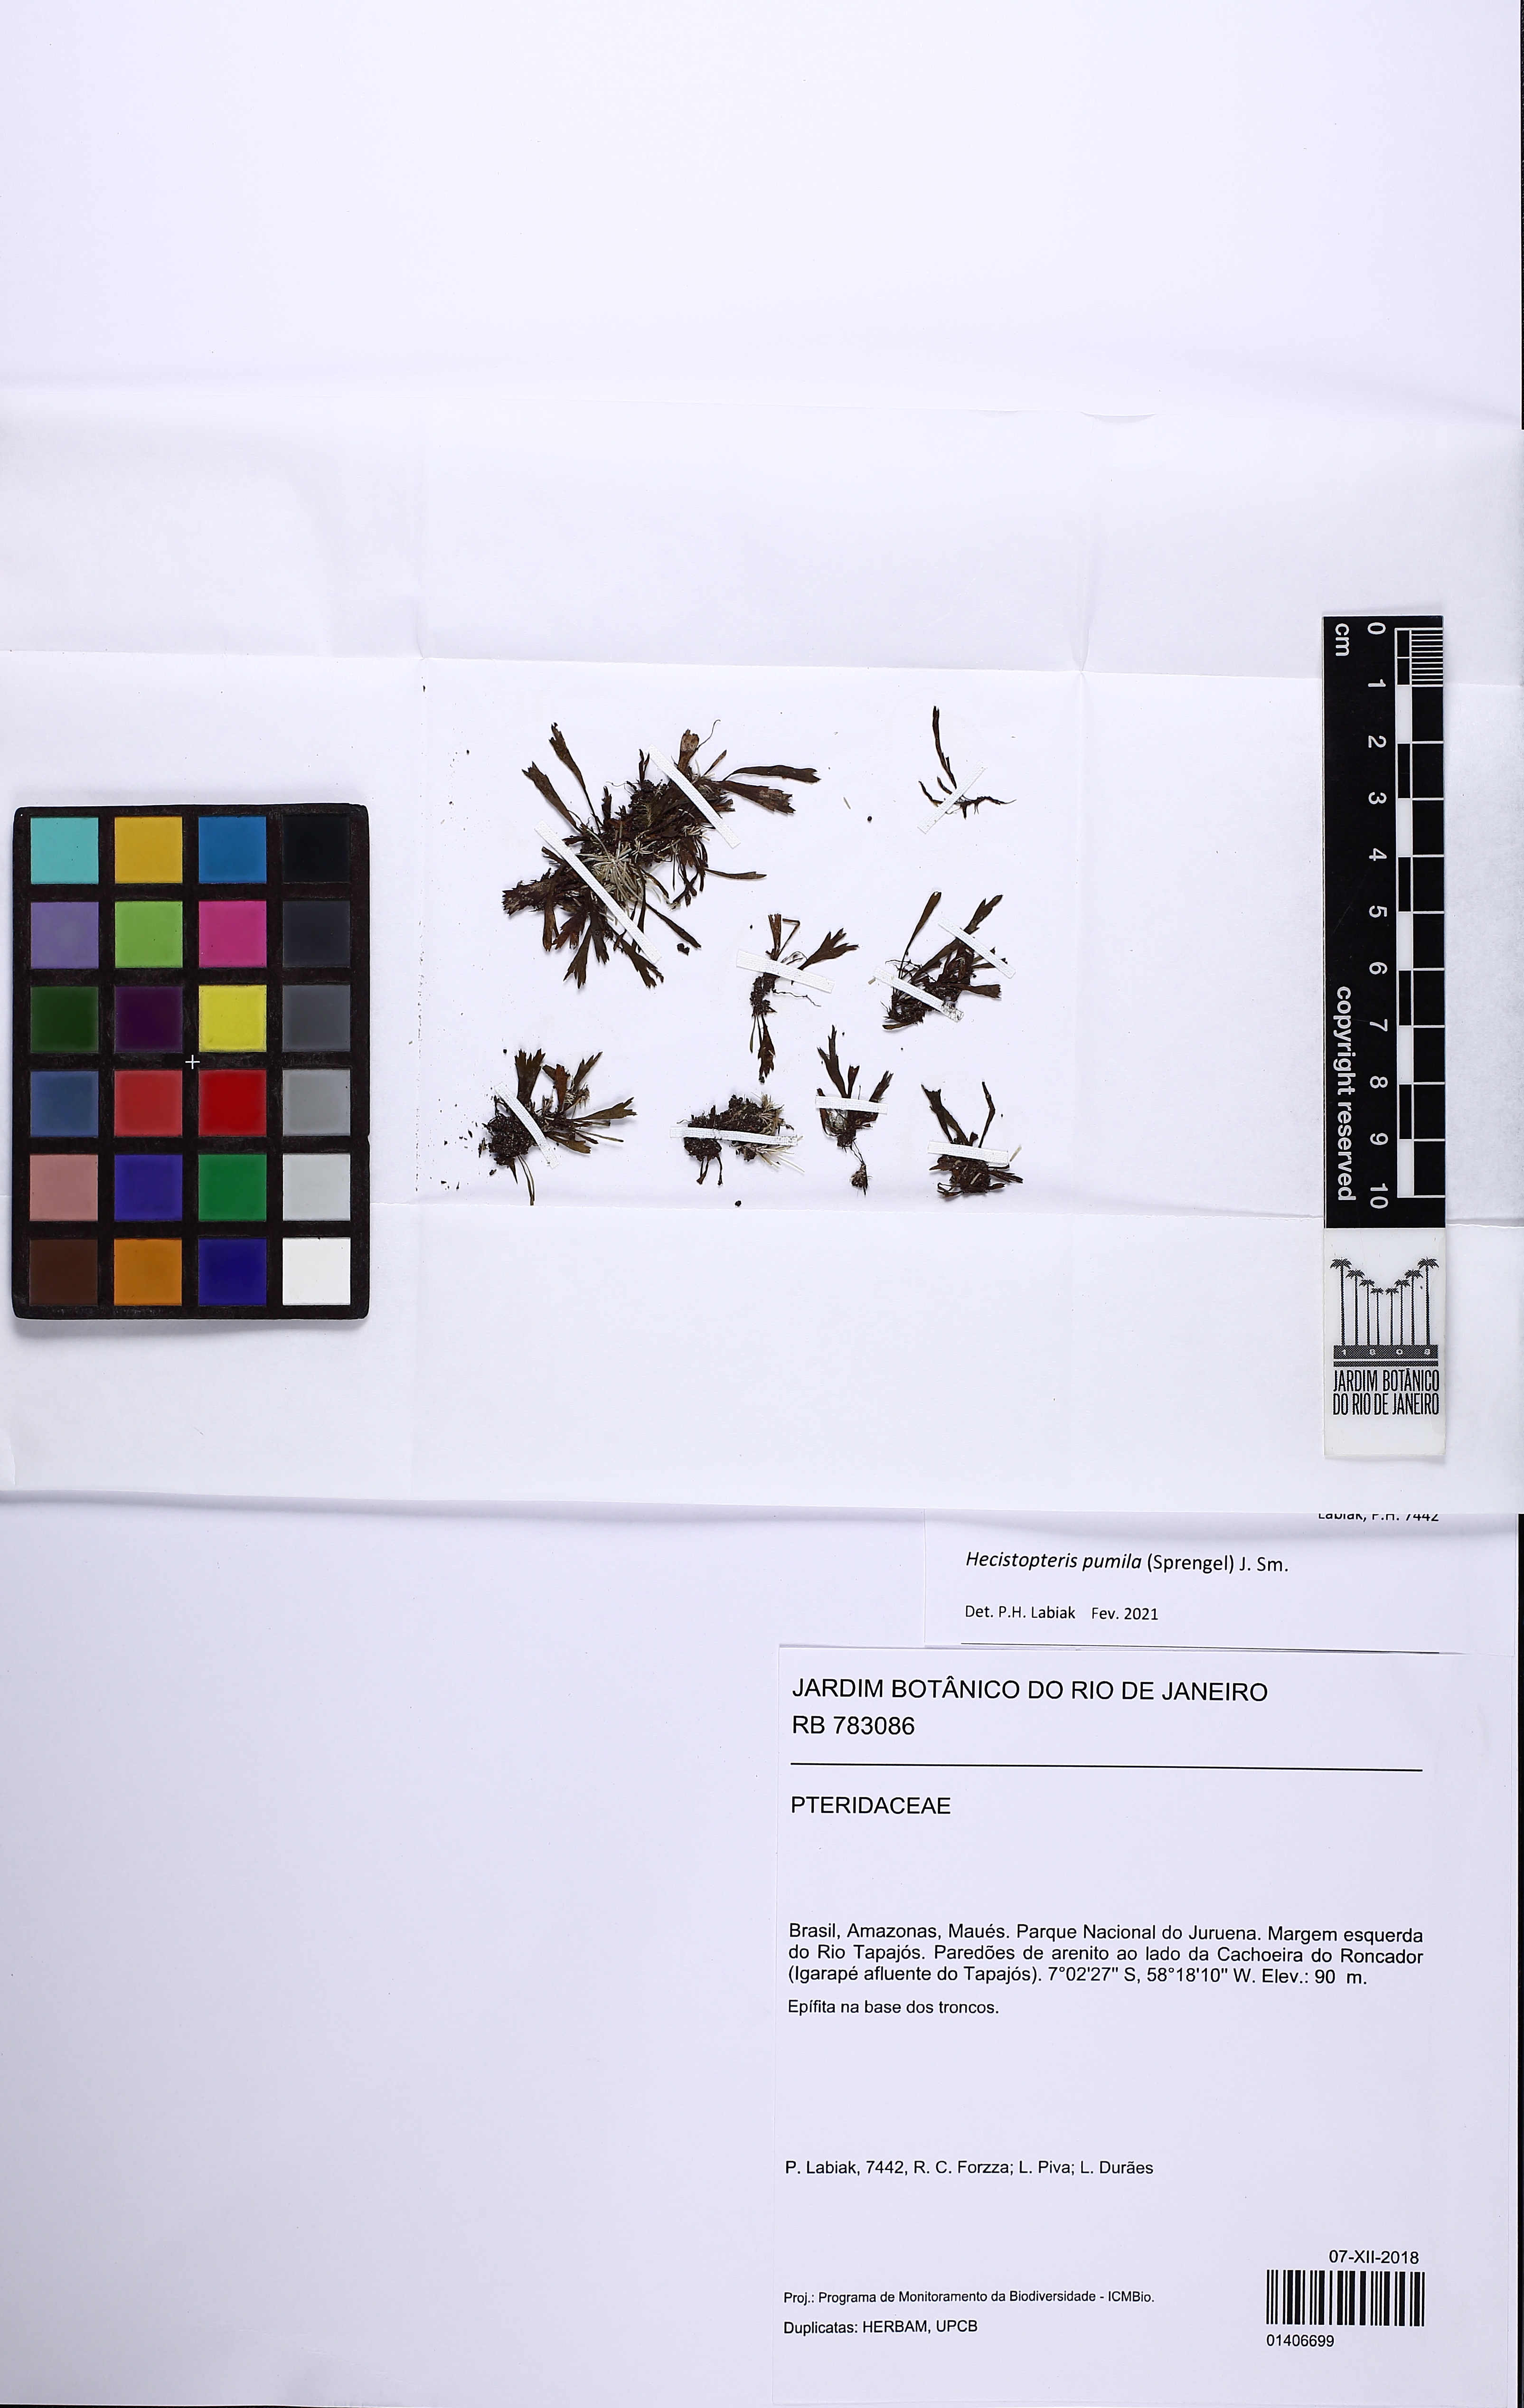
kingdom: Plantae
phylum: Tracheophyta
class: Polypodiopsida
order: Polypodiales
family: Pteridaceae
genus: Hecistopteris
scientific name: Hecistopteris pumila
